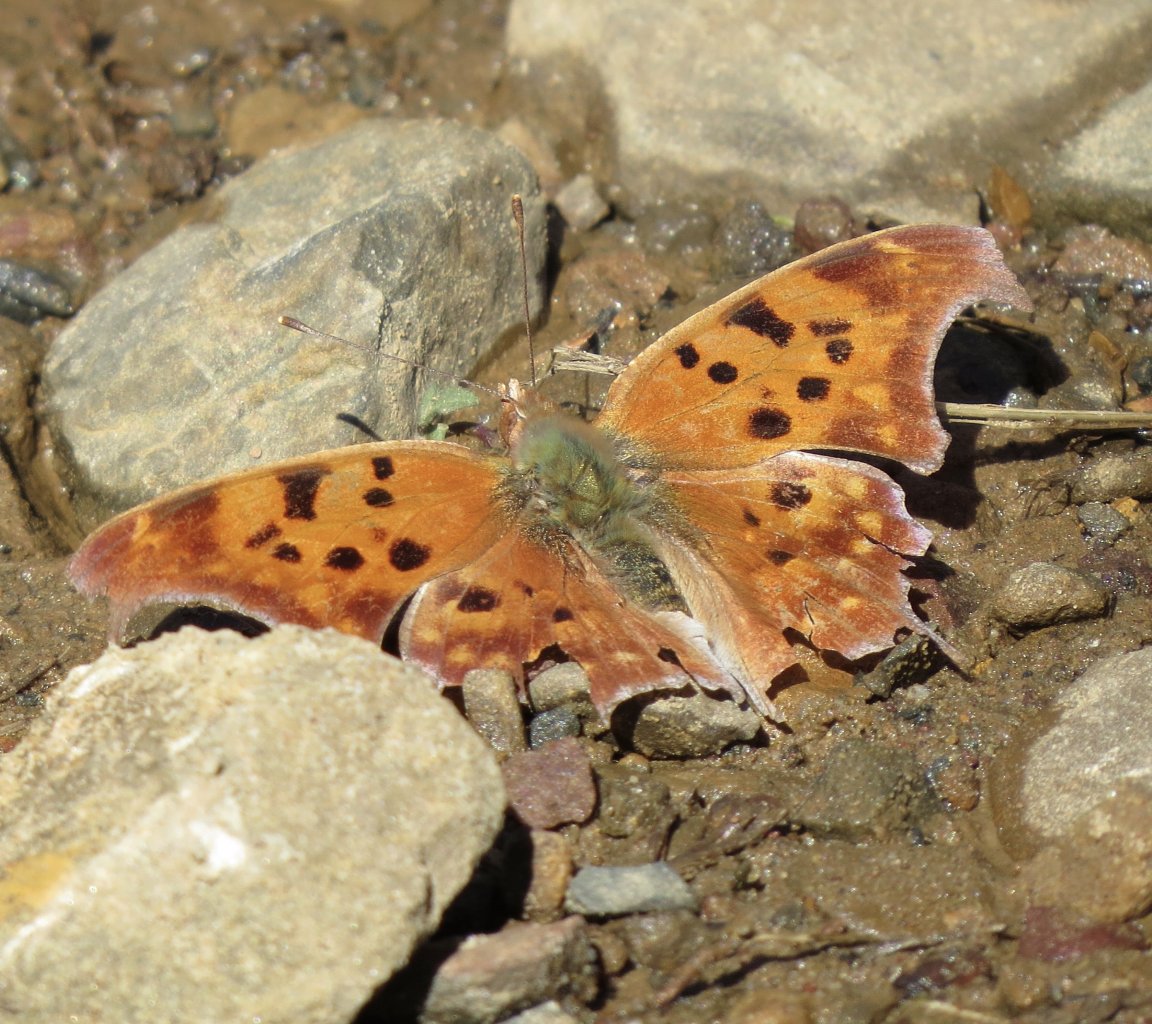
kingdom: Animalia
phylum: Arthropoda
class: Insecta
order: Lepidoptera
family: Nymphalidae
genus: Polygonia
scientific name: Polygonia interrogationis
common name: Question Mark
